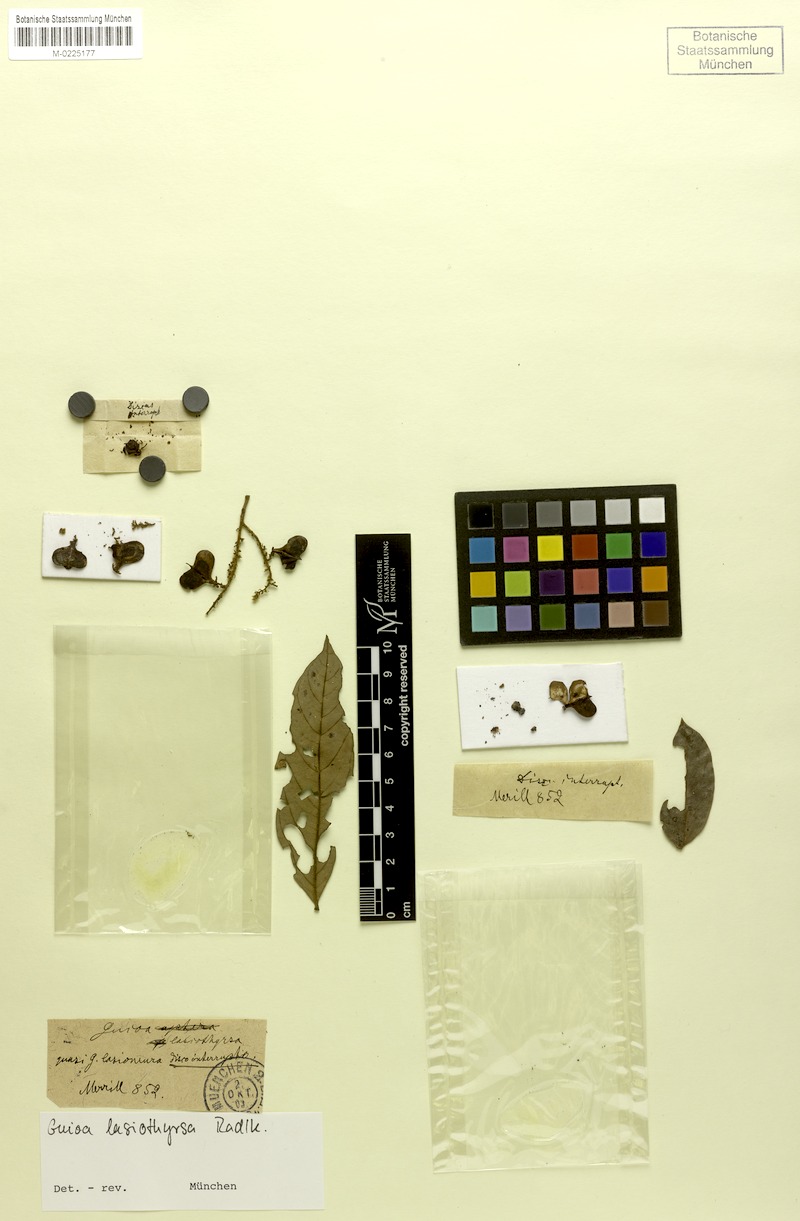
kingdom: Plantae
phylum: Tracheophyta
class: Magnoliopsida
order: Sapindales
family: Sapindaceae
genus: Guioa
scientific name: Guioa pleuropteris
